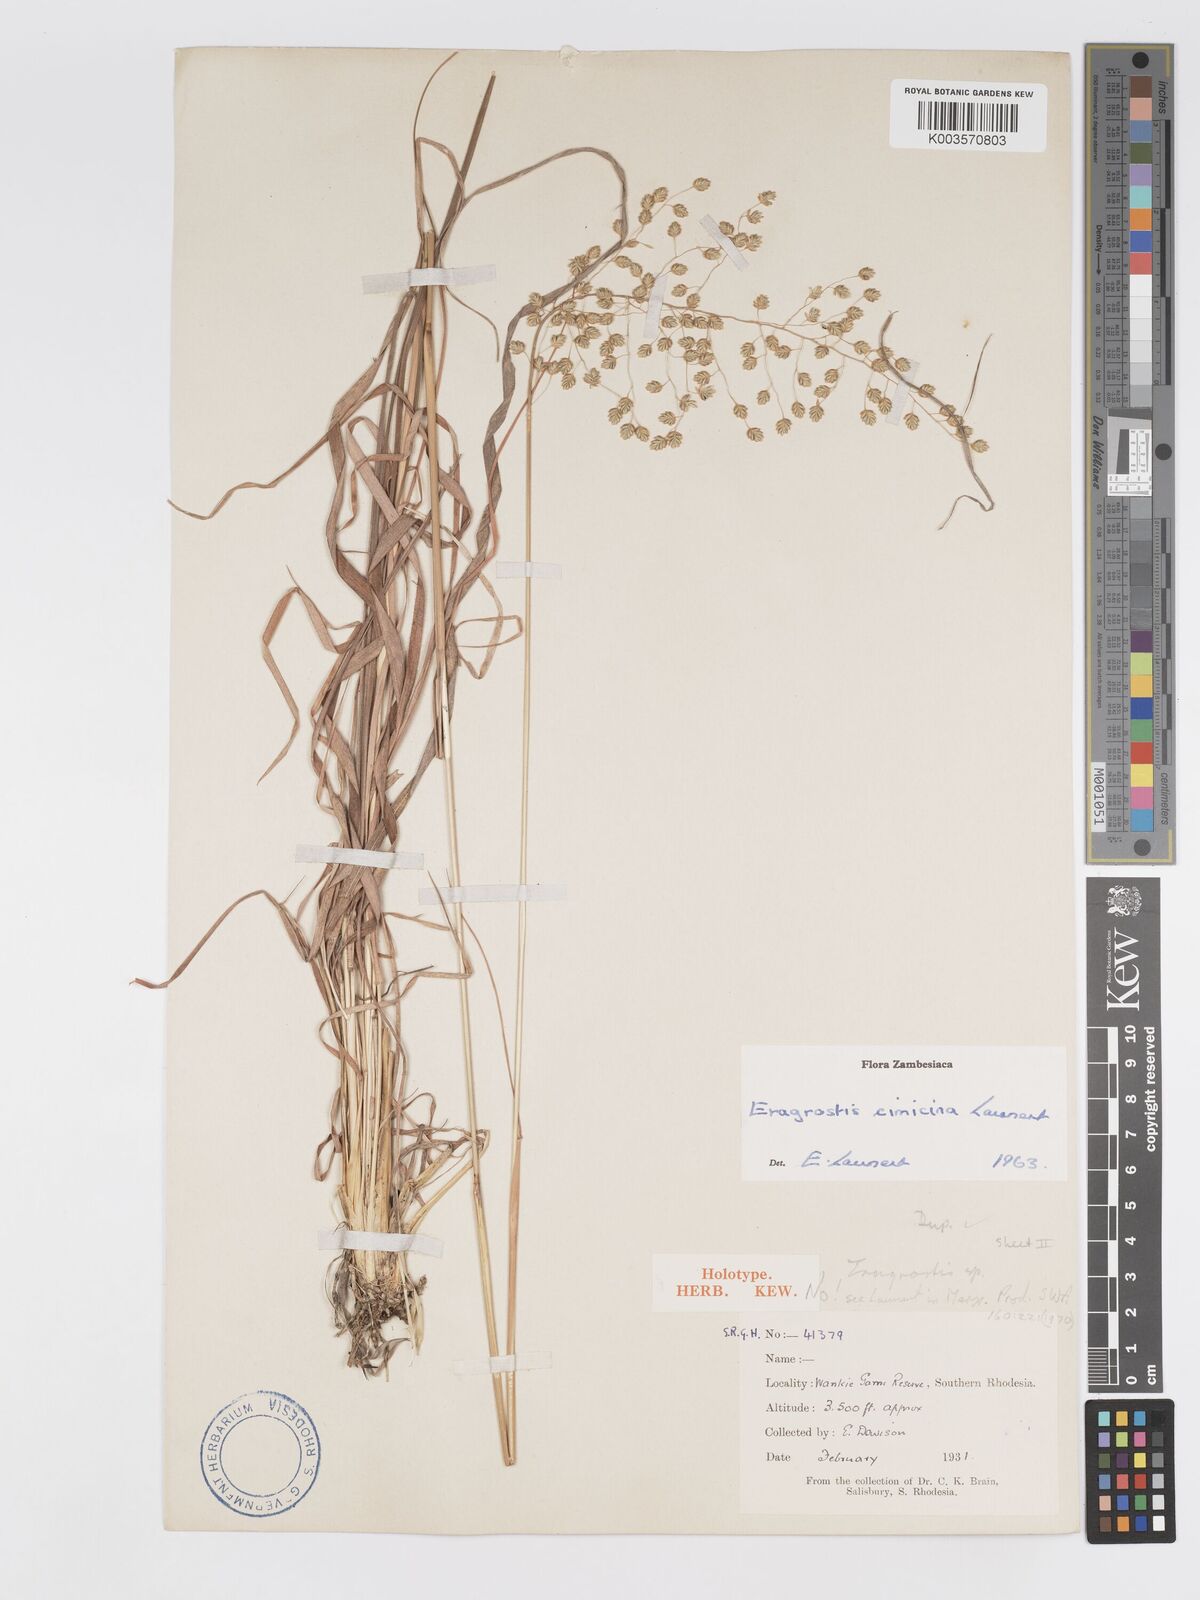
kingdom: Plantae
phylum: Tracheophyta
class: Liliopsida
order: Poales
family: Poaceae
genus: Eragrostis
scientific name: Eragrostis cimicina
